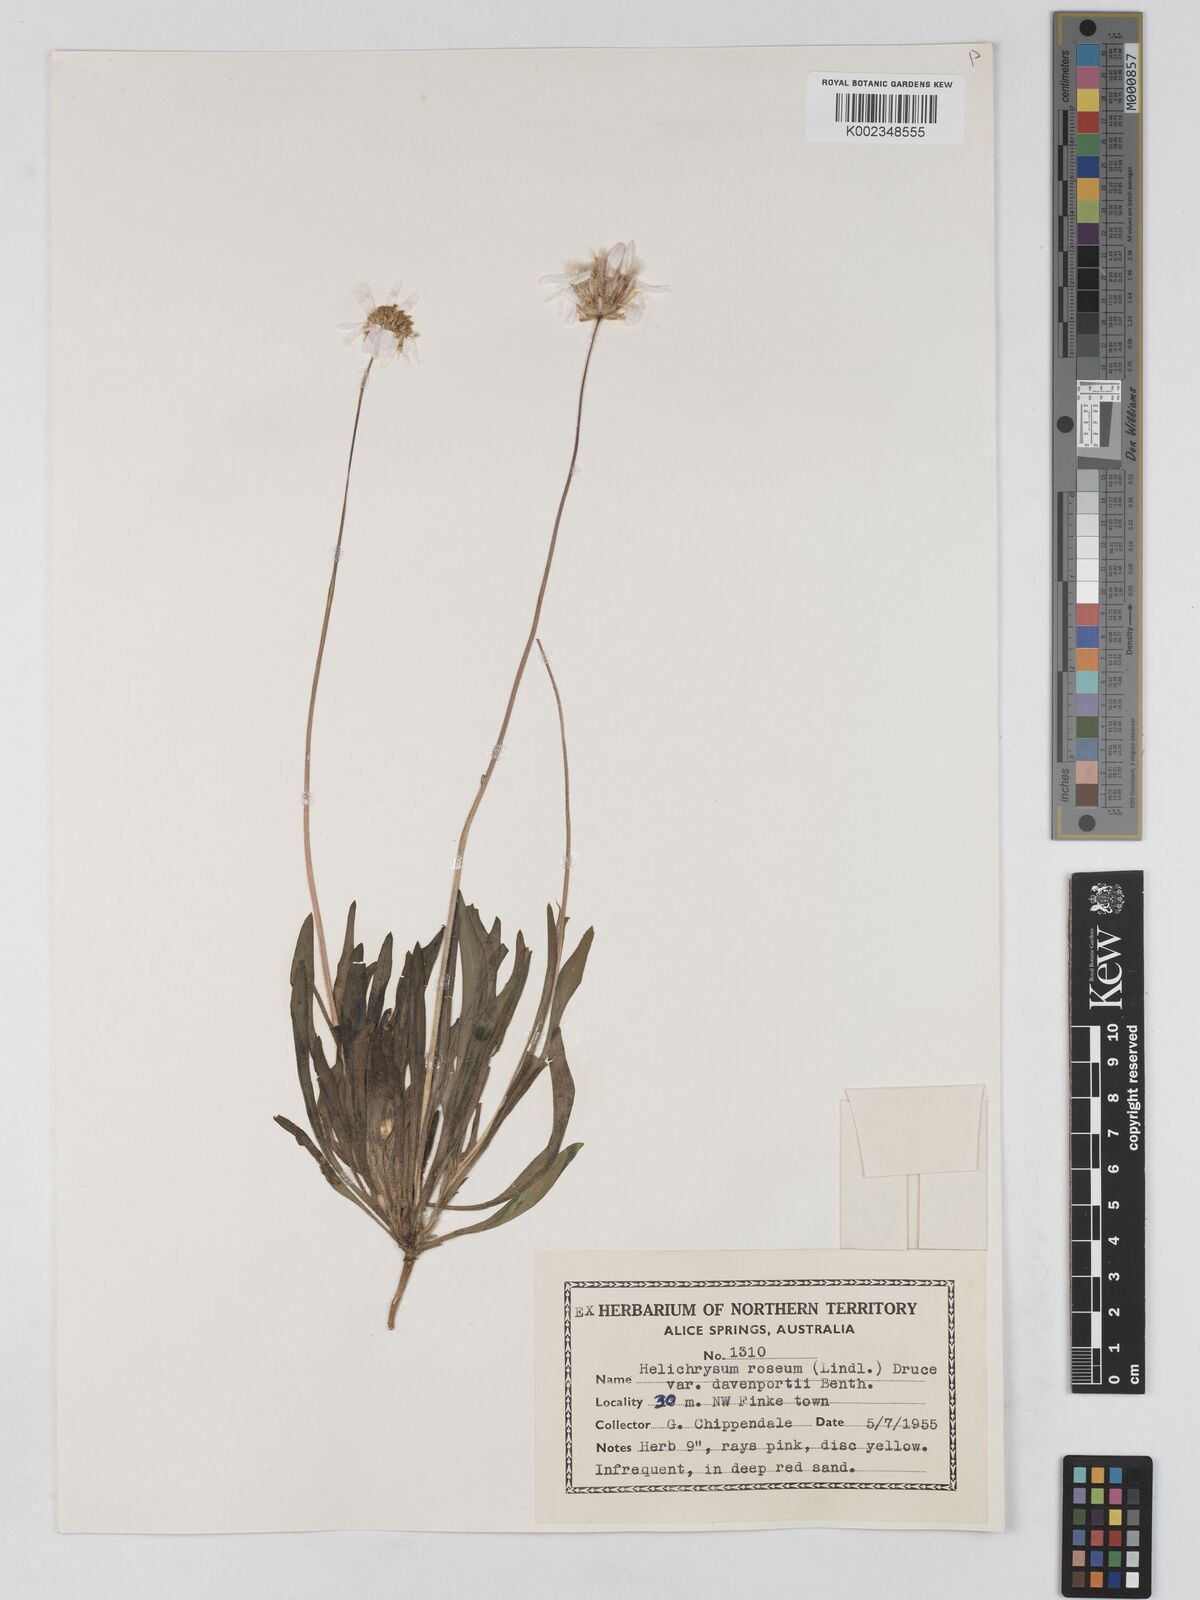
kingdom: Plantae
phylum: Tracheophyta
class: Magnoliopsida
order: Asterales
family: Asteraceae
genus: Lawrencella
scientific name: Lawrencella davenportii
